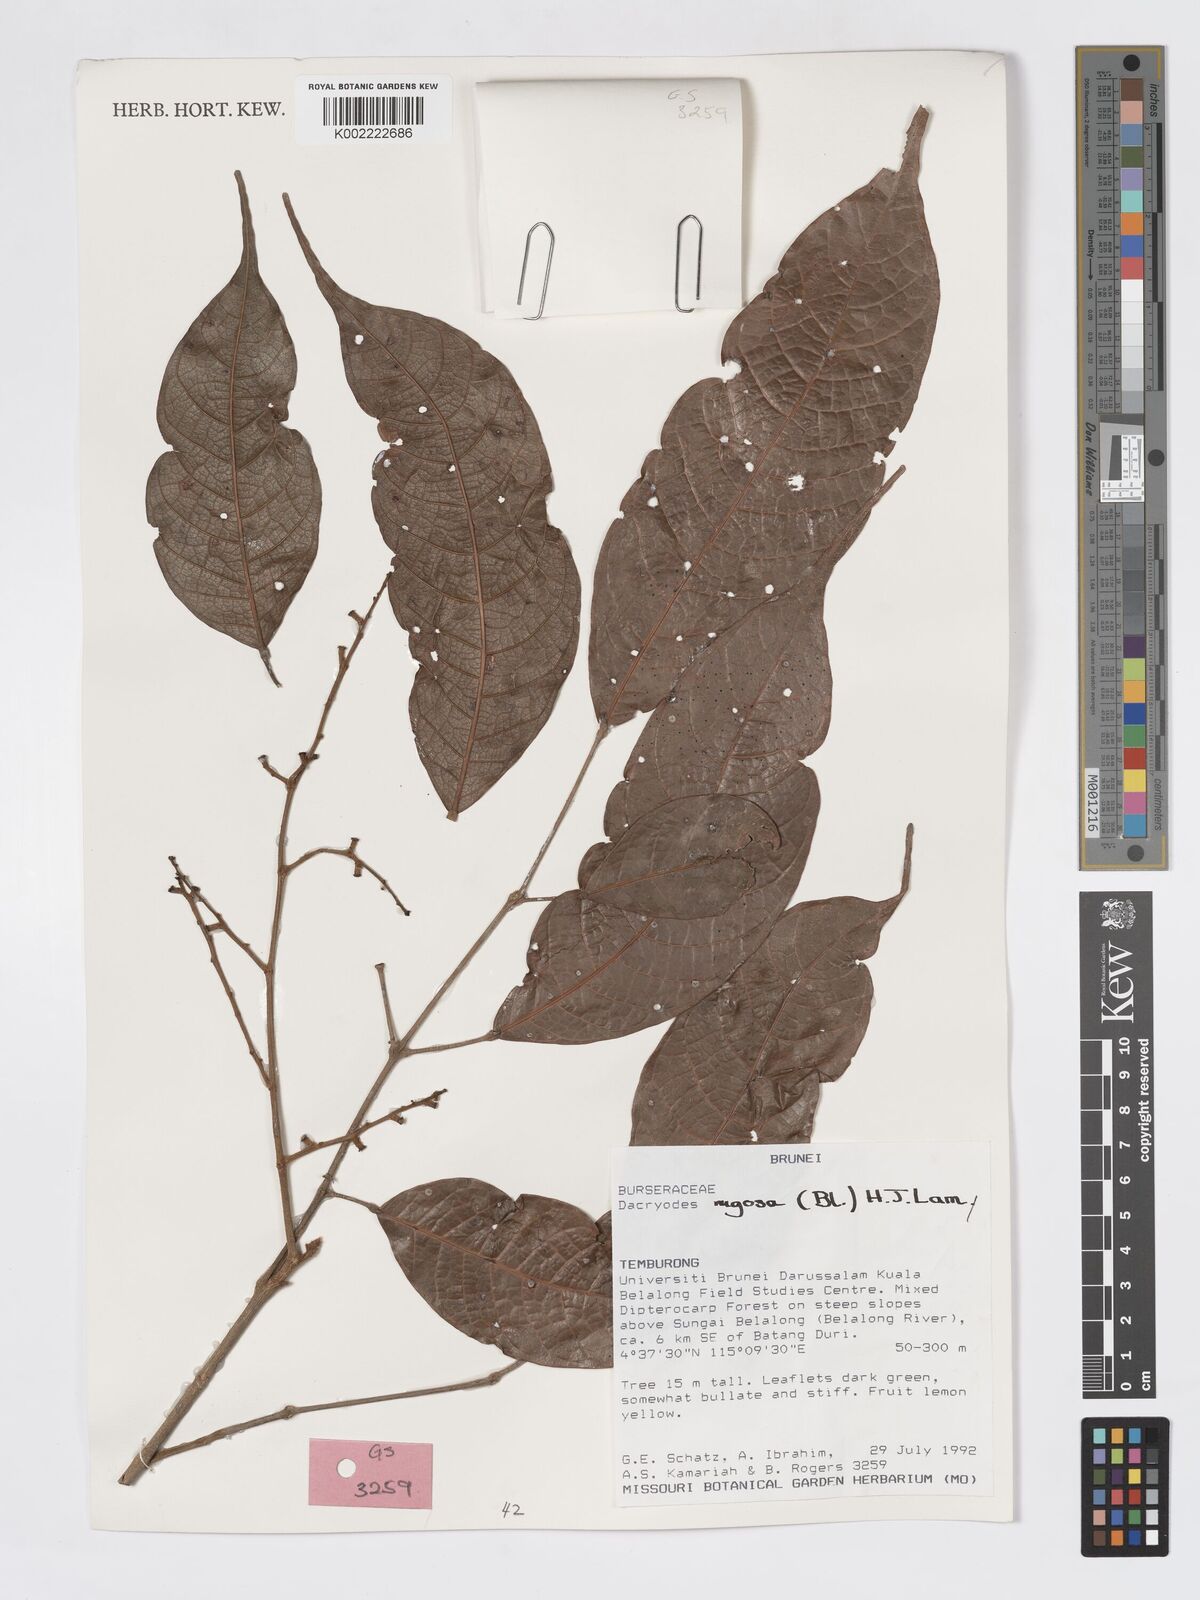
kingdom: Plantae
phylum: Tracheophyta
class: Magnoliopsida
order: Sapindales
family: Burseraceae
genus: Dacryodes
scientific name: Dacryodes rugosa
